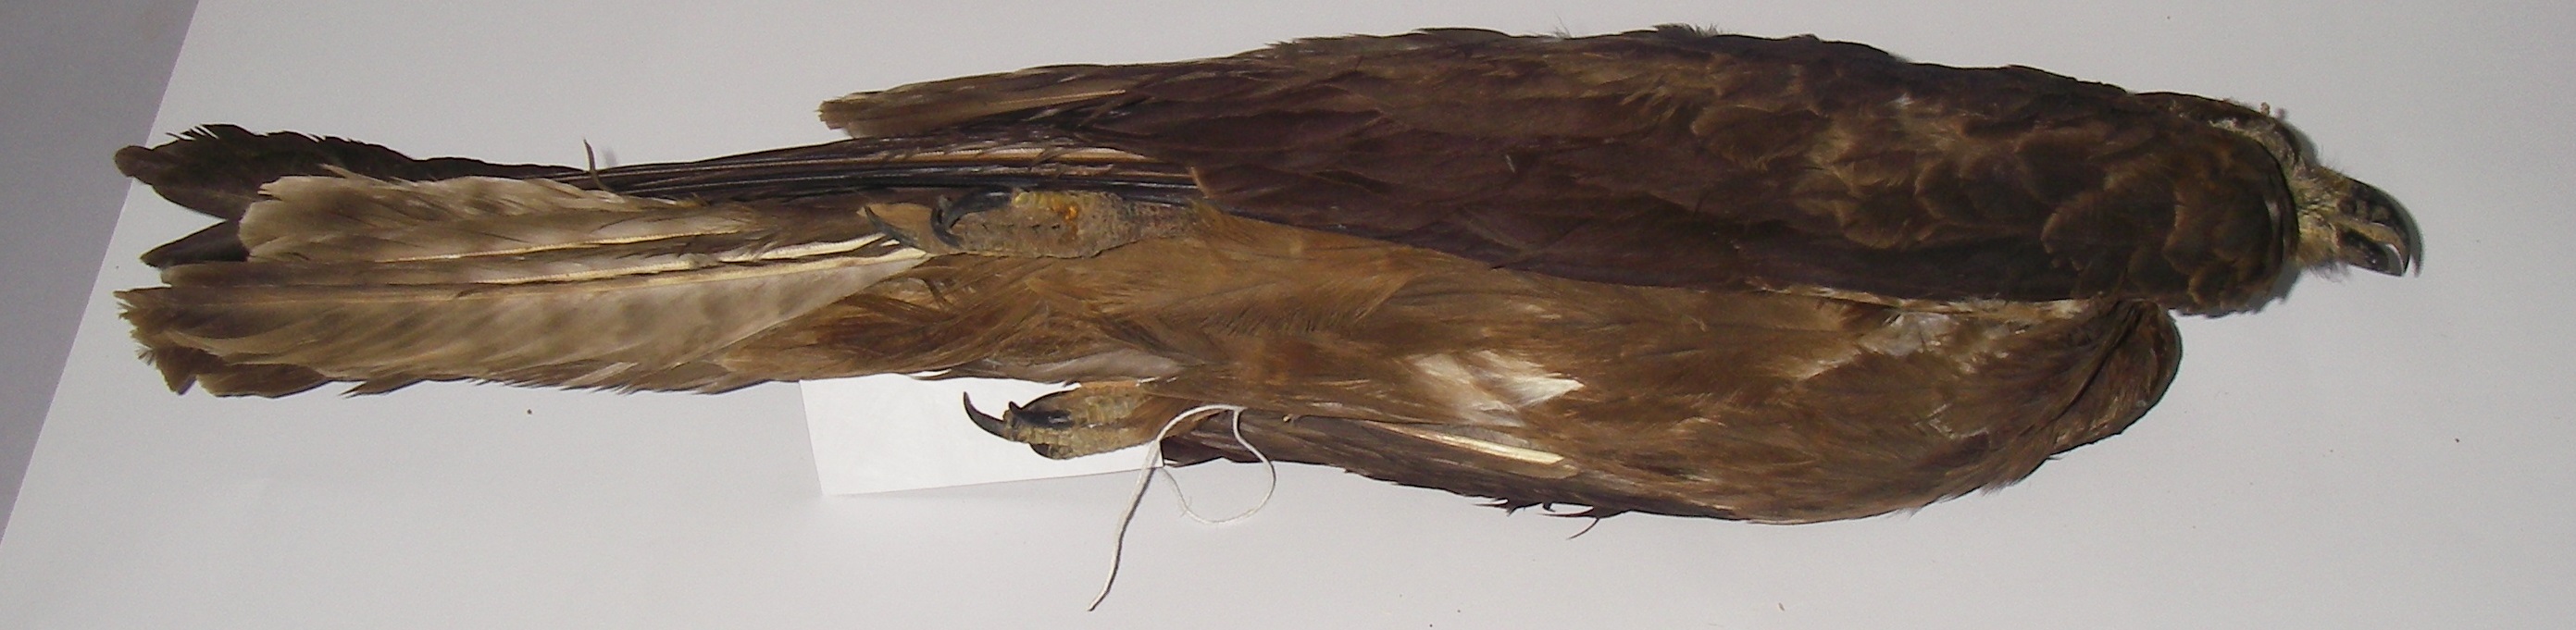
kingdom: Animalia
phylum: Chordata
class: Aves
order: Accipitriformes
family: Accipitridae
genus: Milvus
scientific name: Milvus migrans
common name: Black kite
